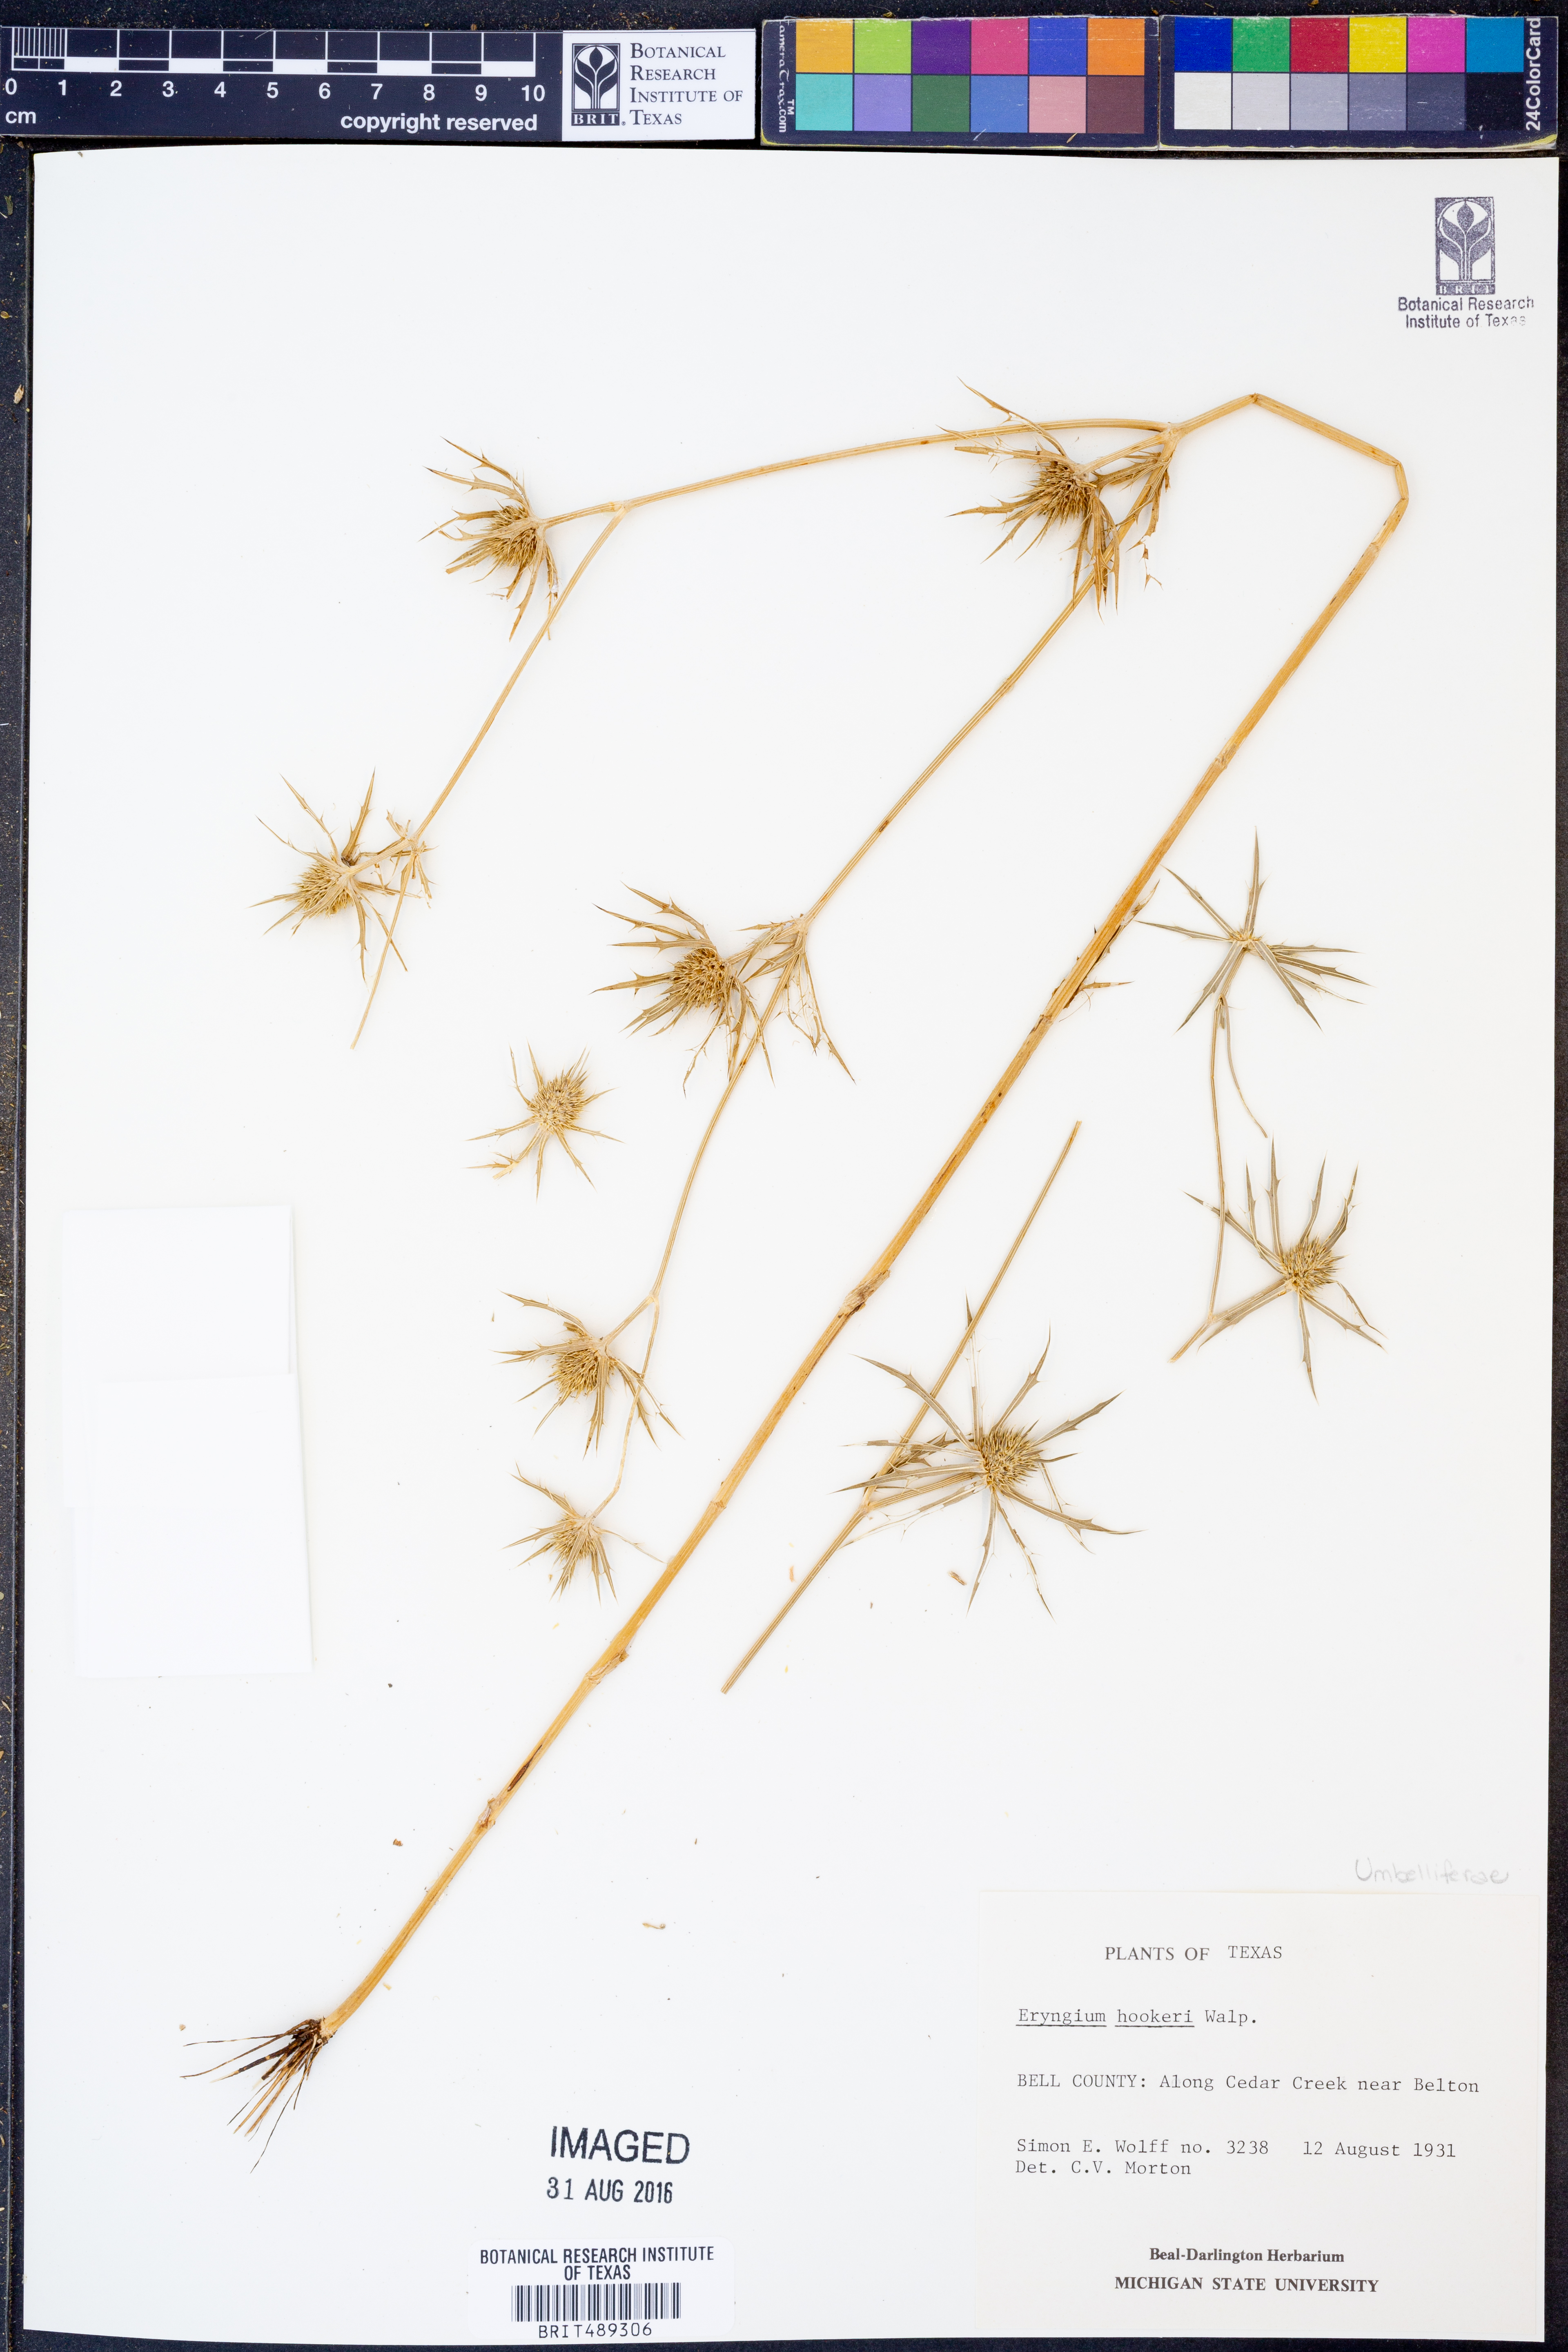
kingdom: Plantae
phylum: Tracheophyta
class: Magnoliopsida
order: Apiales
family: Apiaceae
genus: Eryngium
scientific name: Eryngium hookeri
